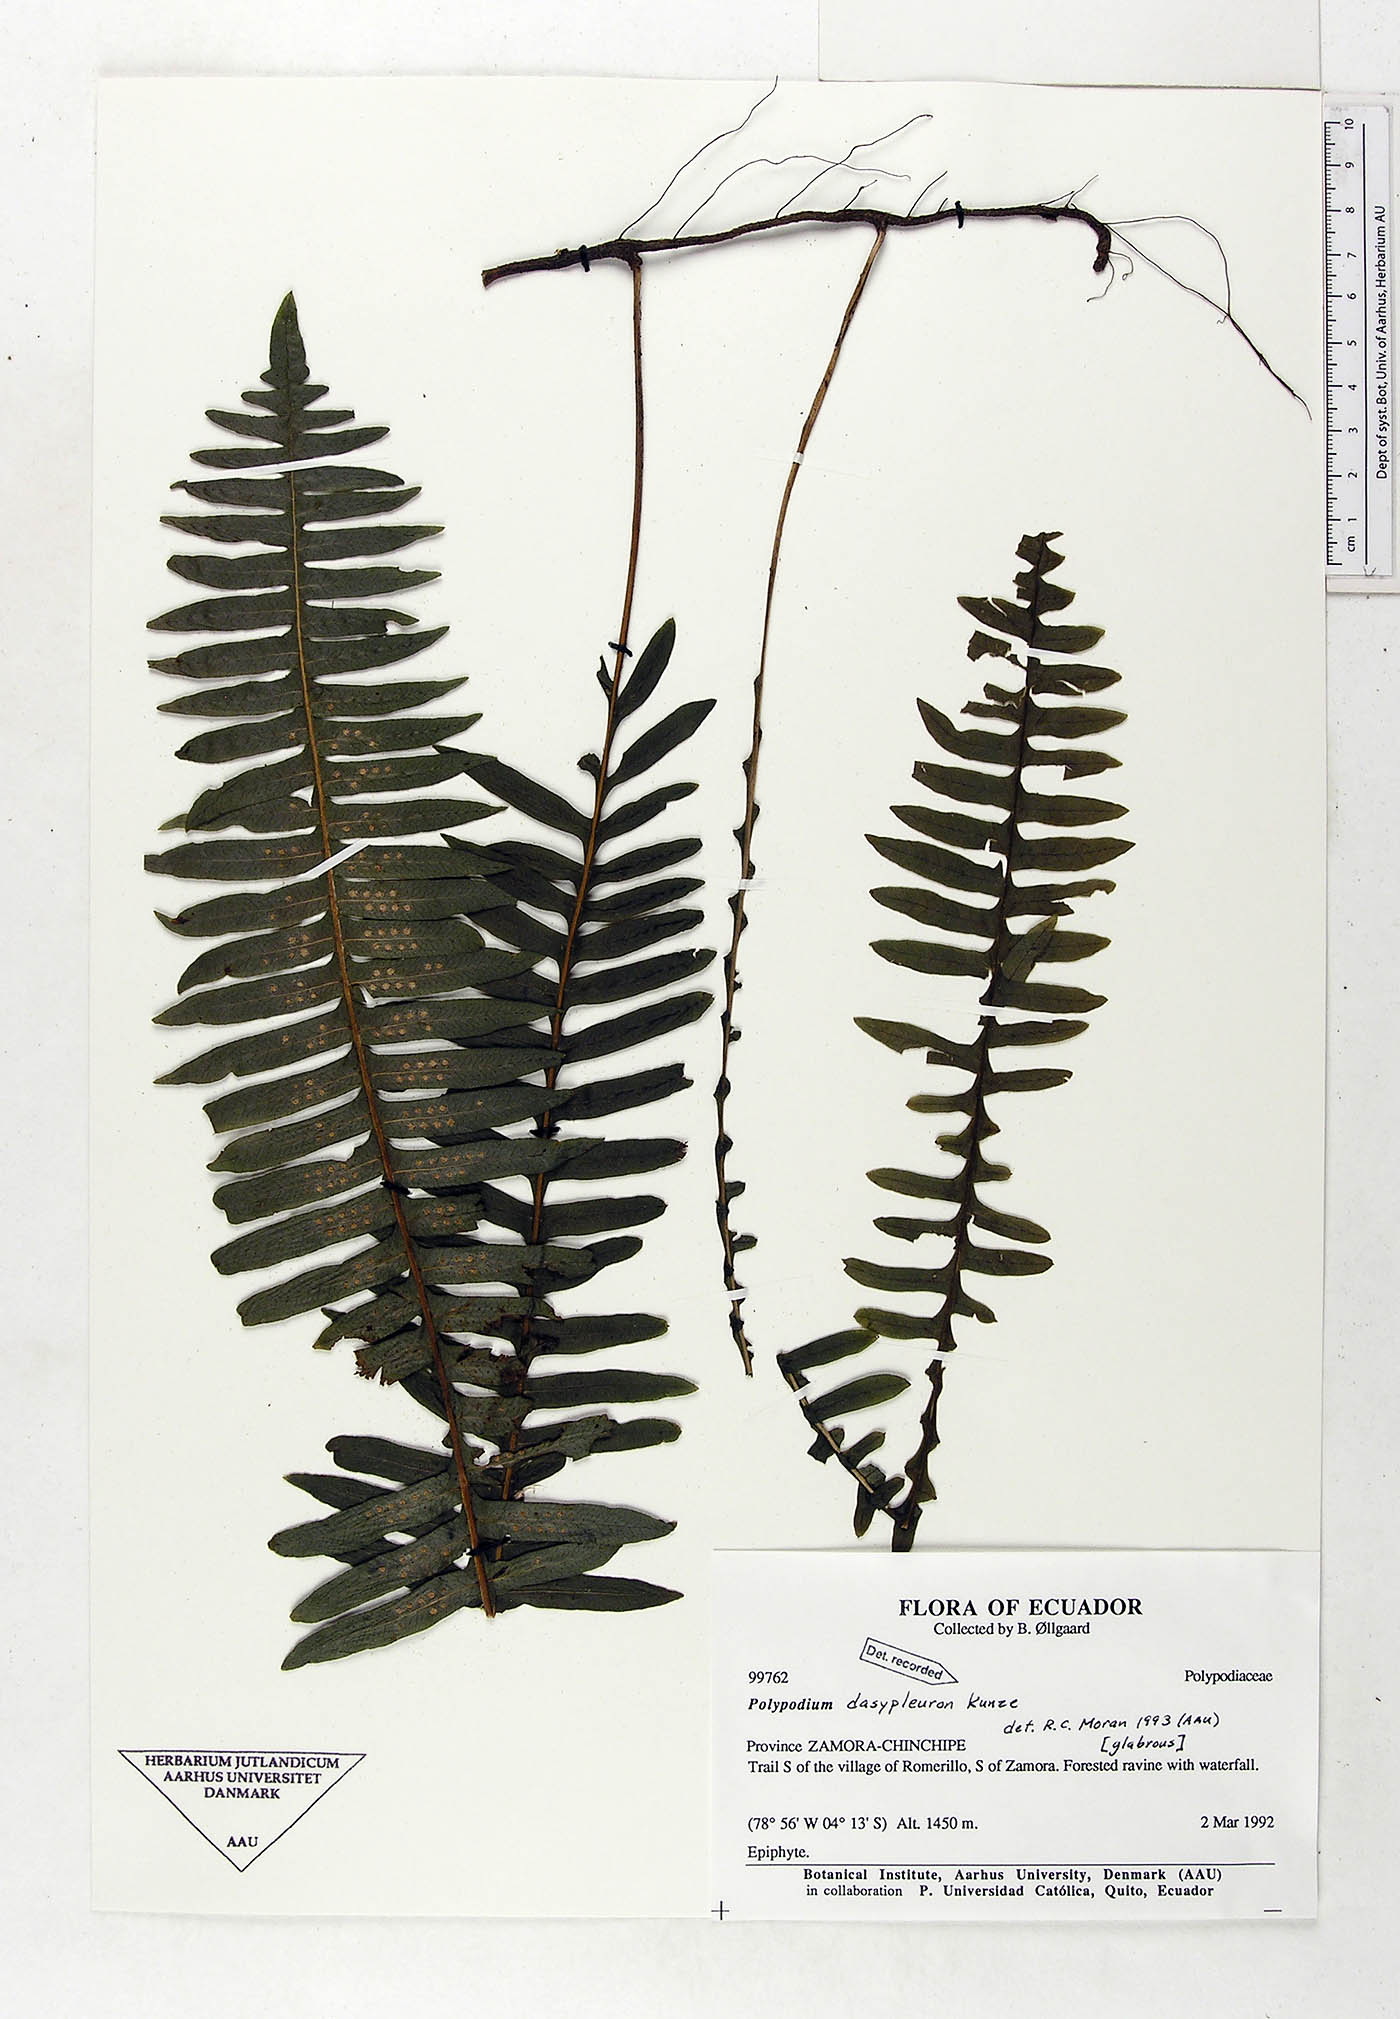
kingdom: Plantae
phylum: Tracheophyta
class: Polypodiopsida
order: Polypodiales
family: Polypodiaceae
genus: Serpocaulon
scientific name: Serpocaulon dasypleuron
